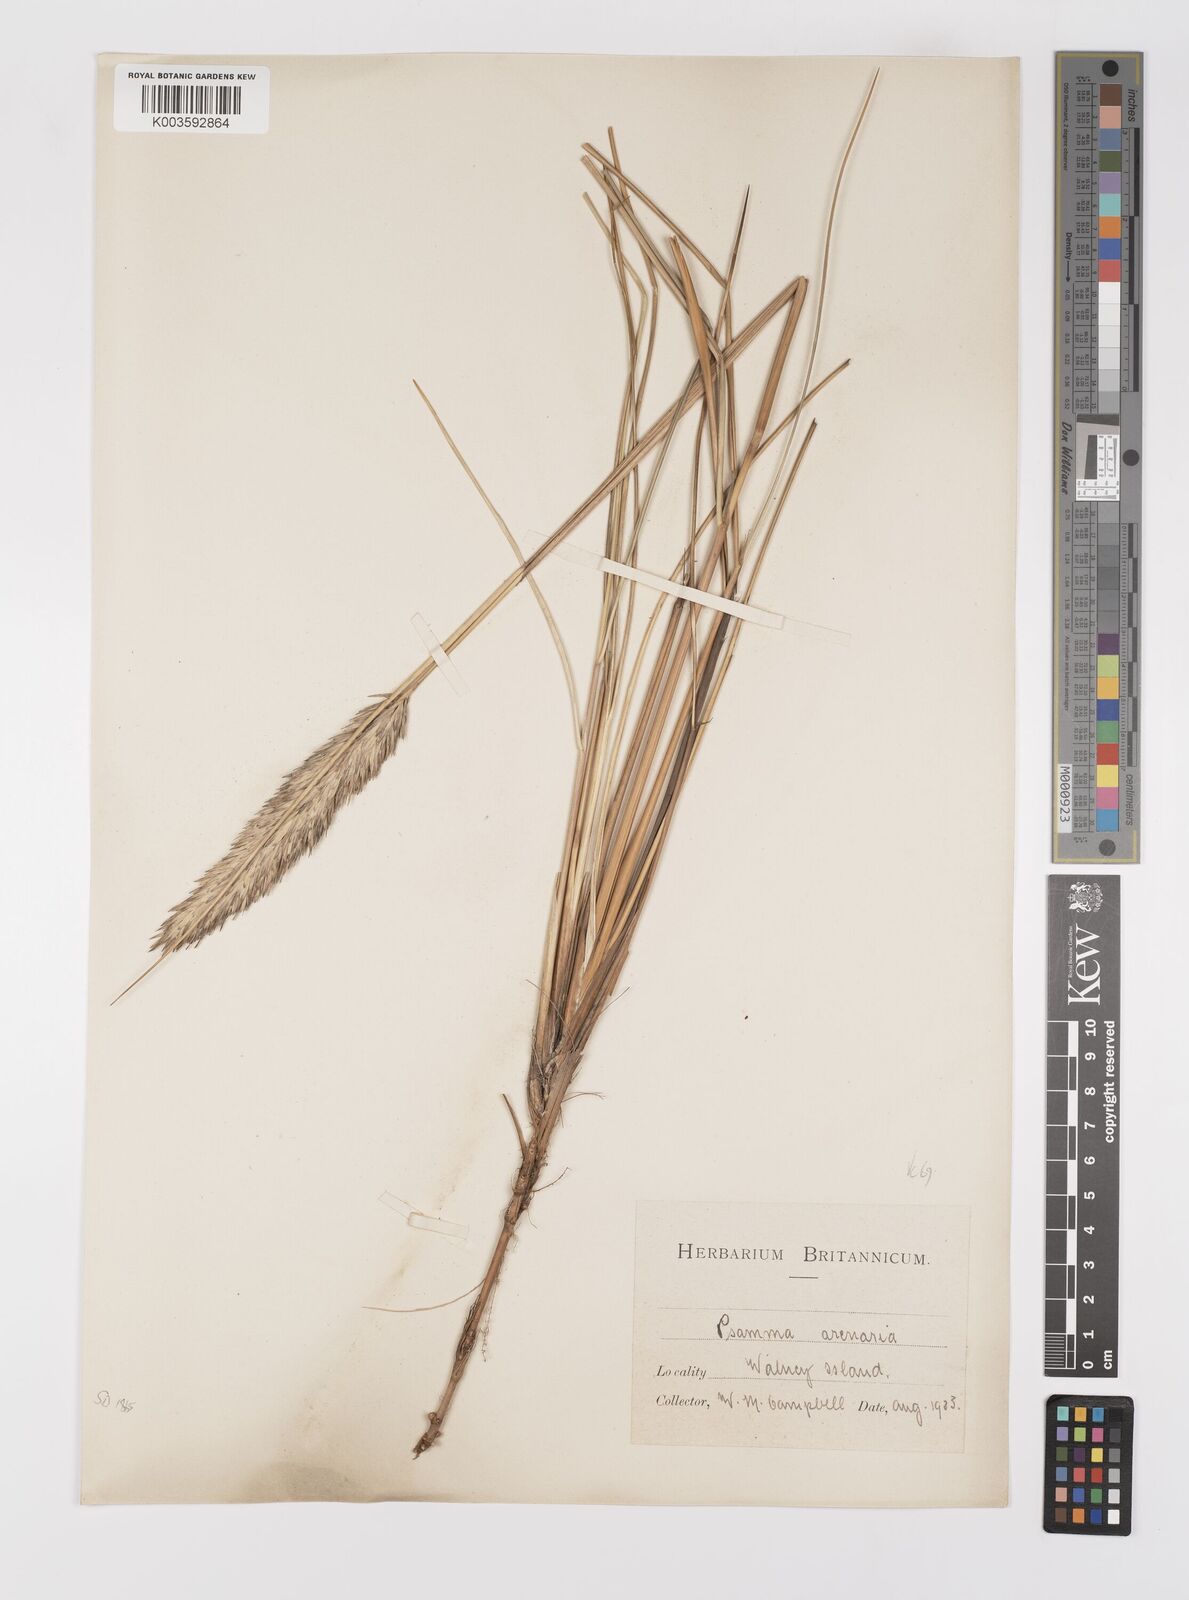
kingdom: Plantae
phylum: Tracheophyta
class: Liliopsida
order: Poales
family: Poaceae
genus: Calamagrostis
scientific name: Calamagrostis arenaria
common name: European beachgrass
